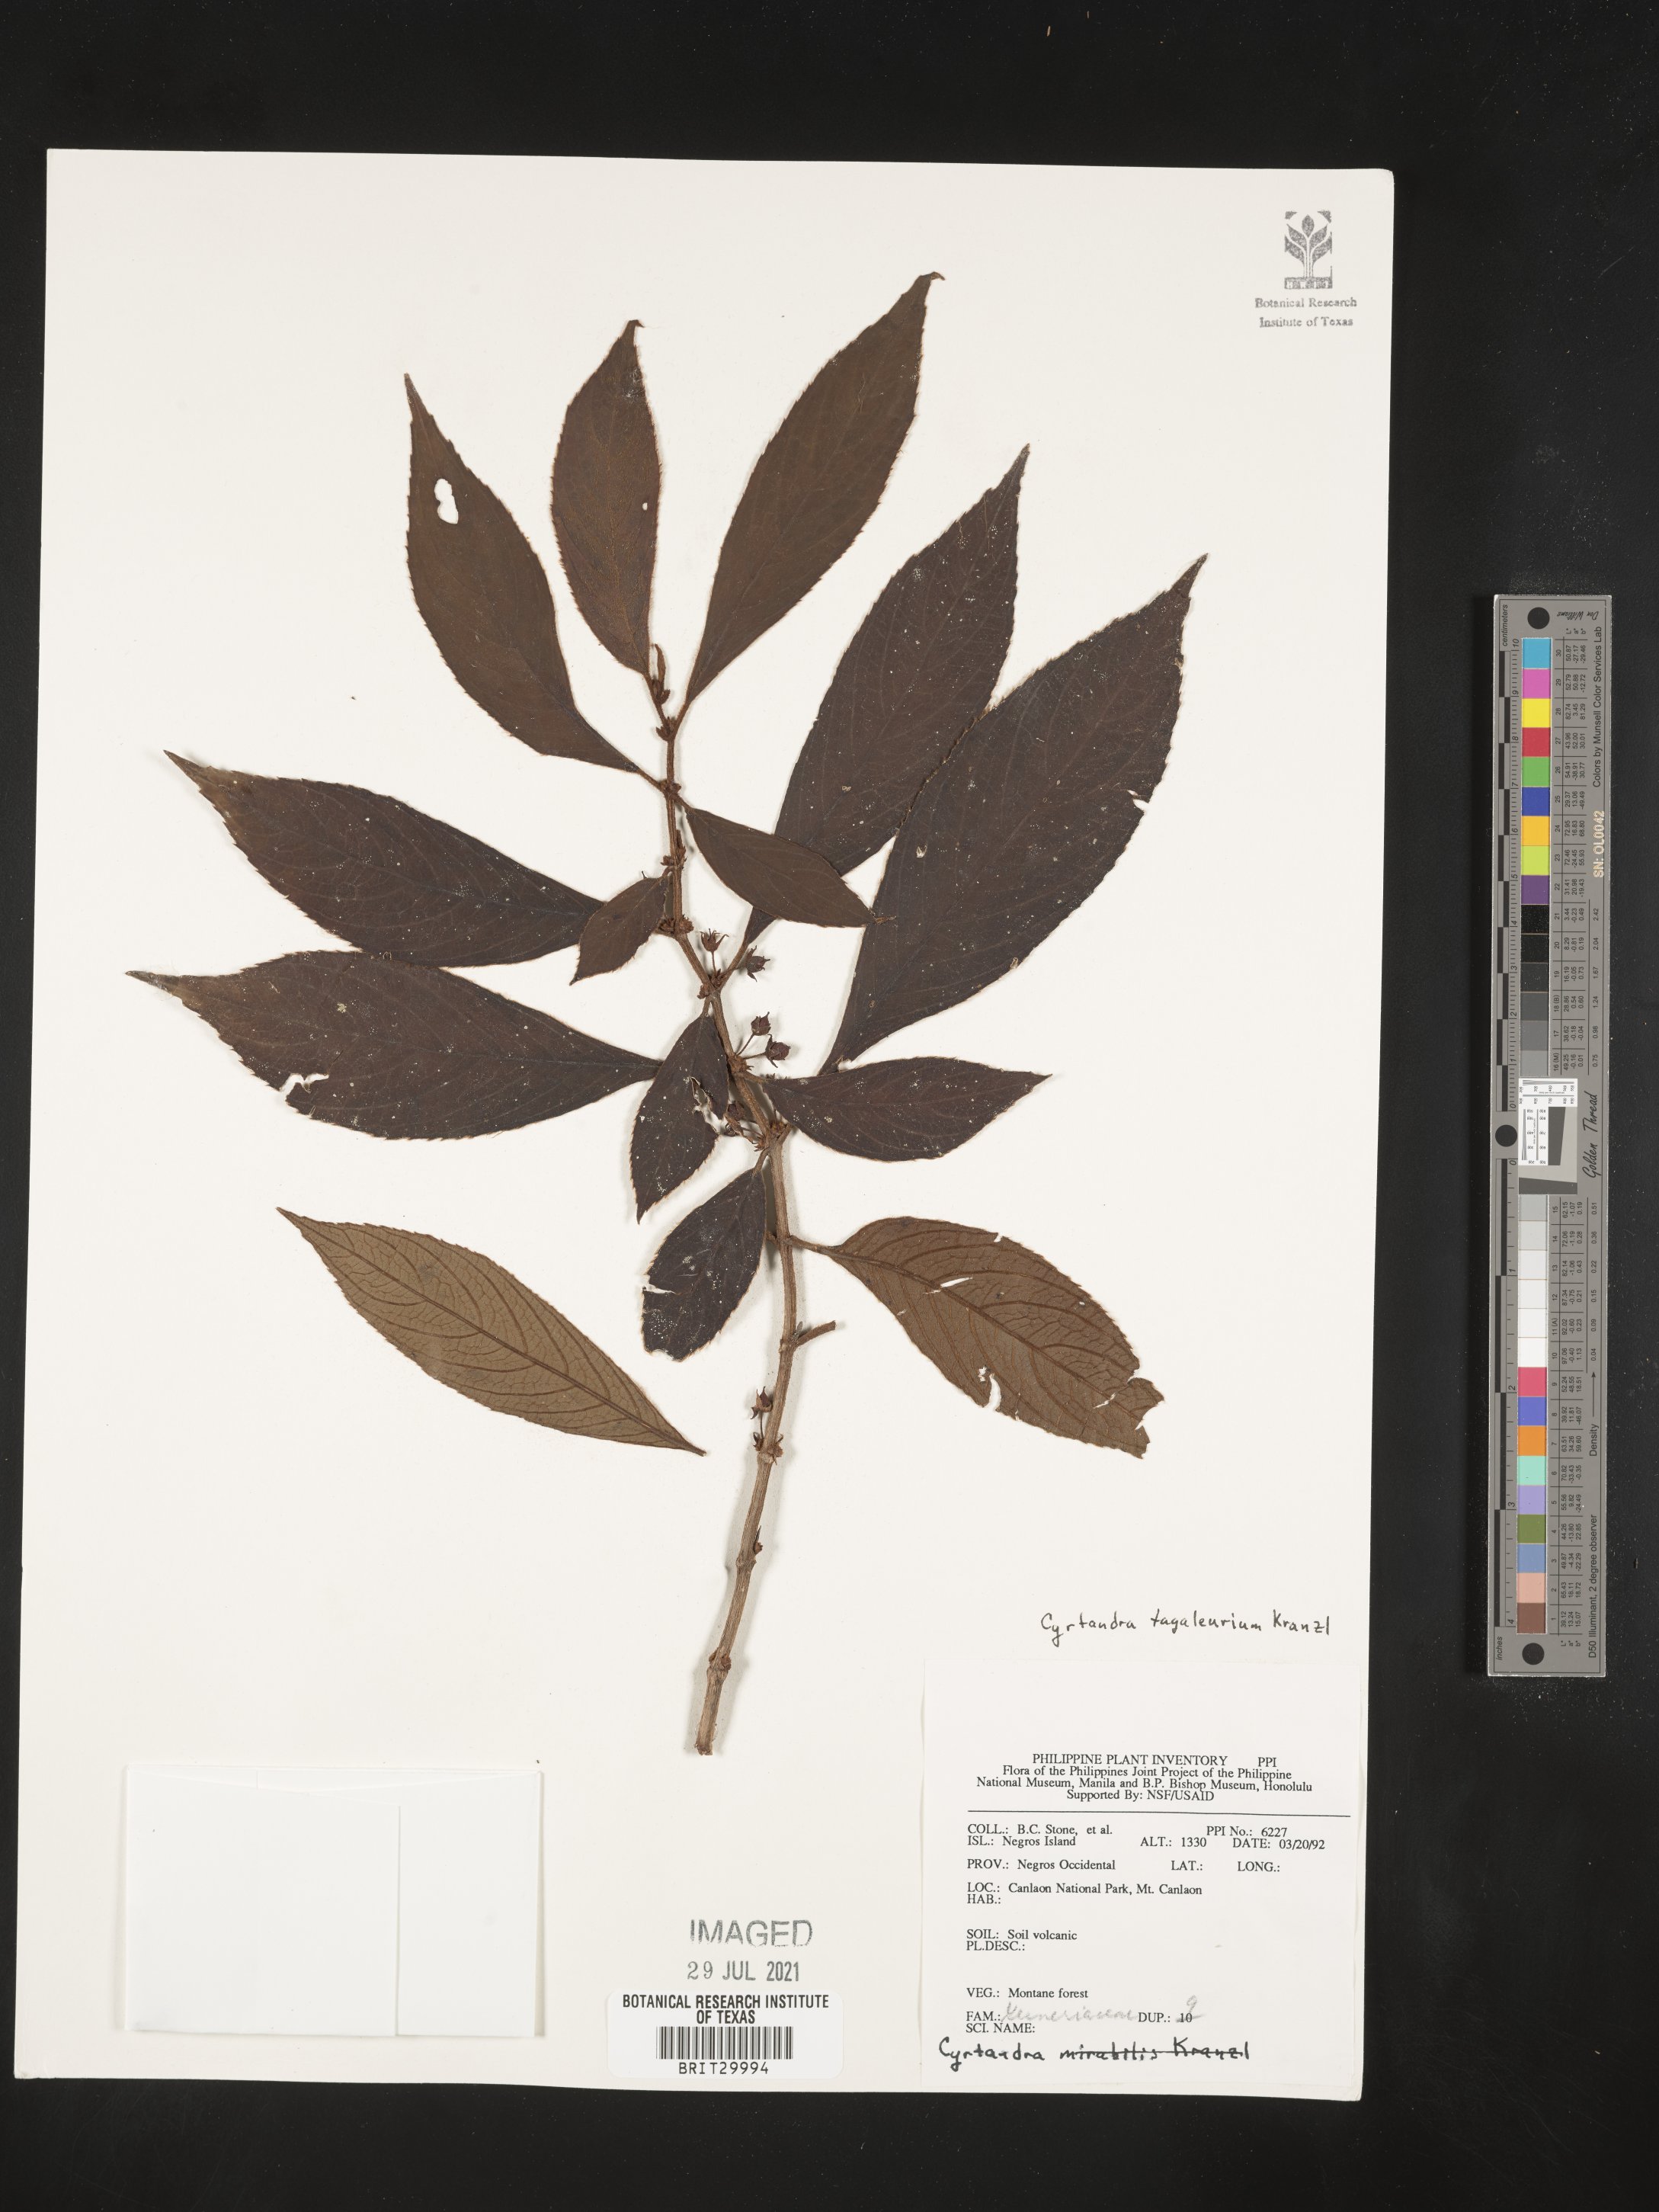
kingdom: Plantae
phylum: Tracheophyta
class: Magnoliopsida
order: Lamiales
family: Gesneriaceae
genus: Cyrtandra
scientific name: Cyrtandra tagaleurium
